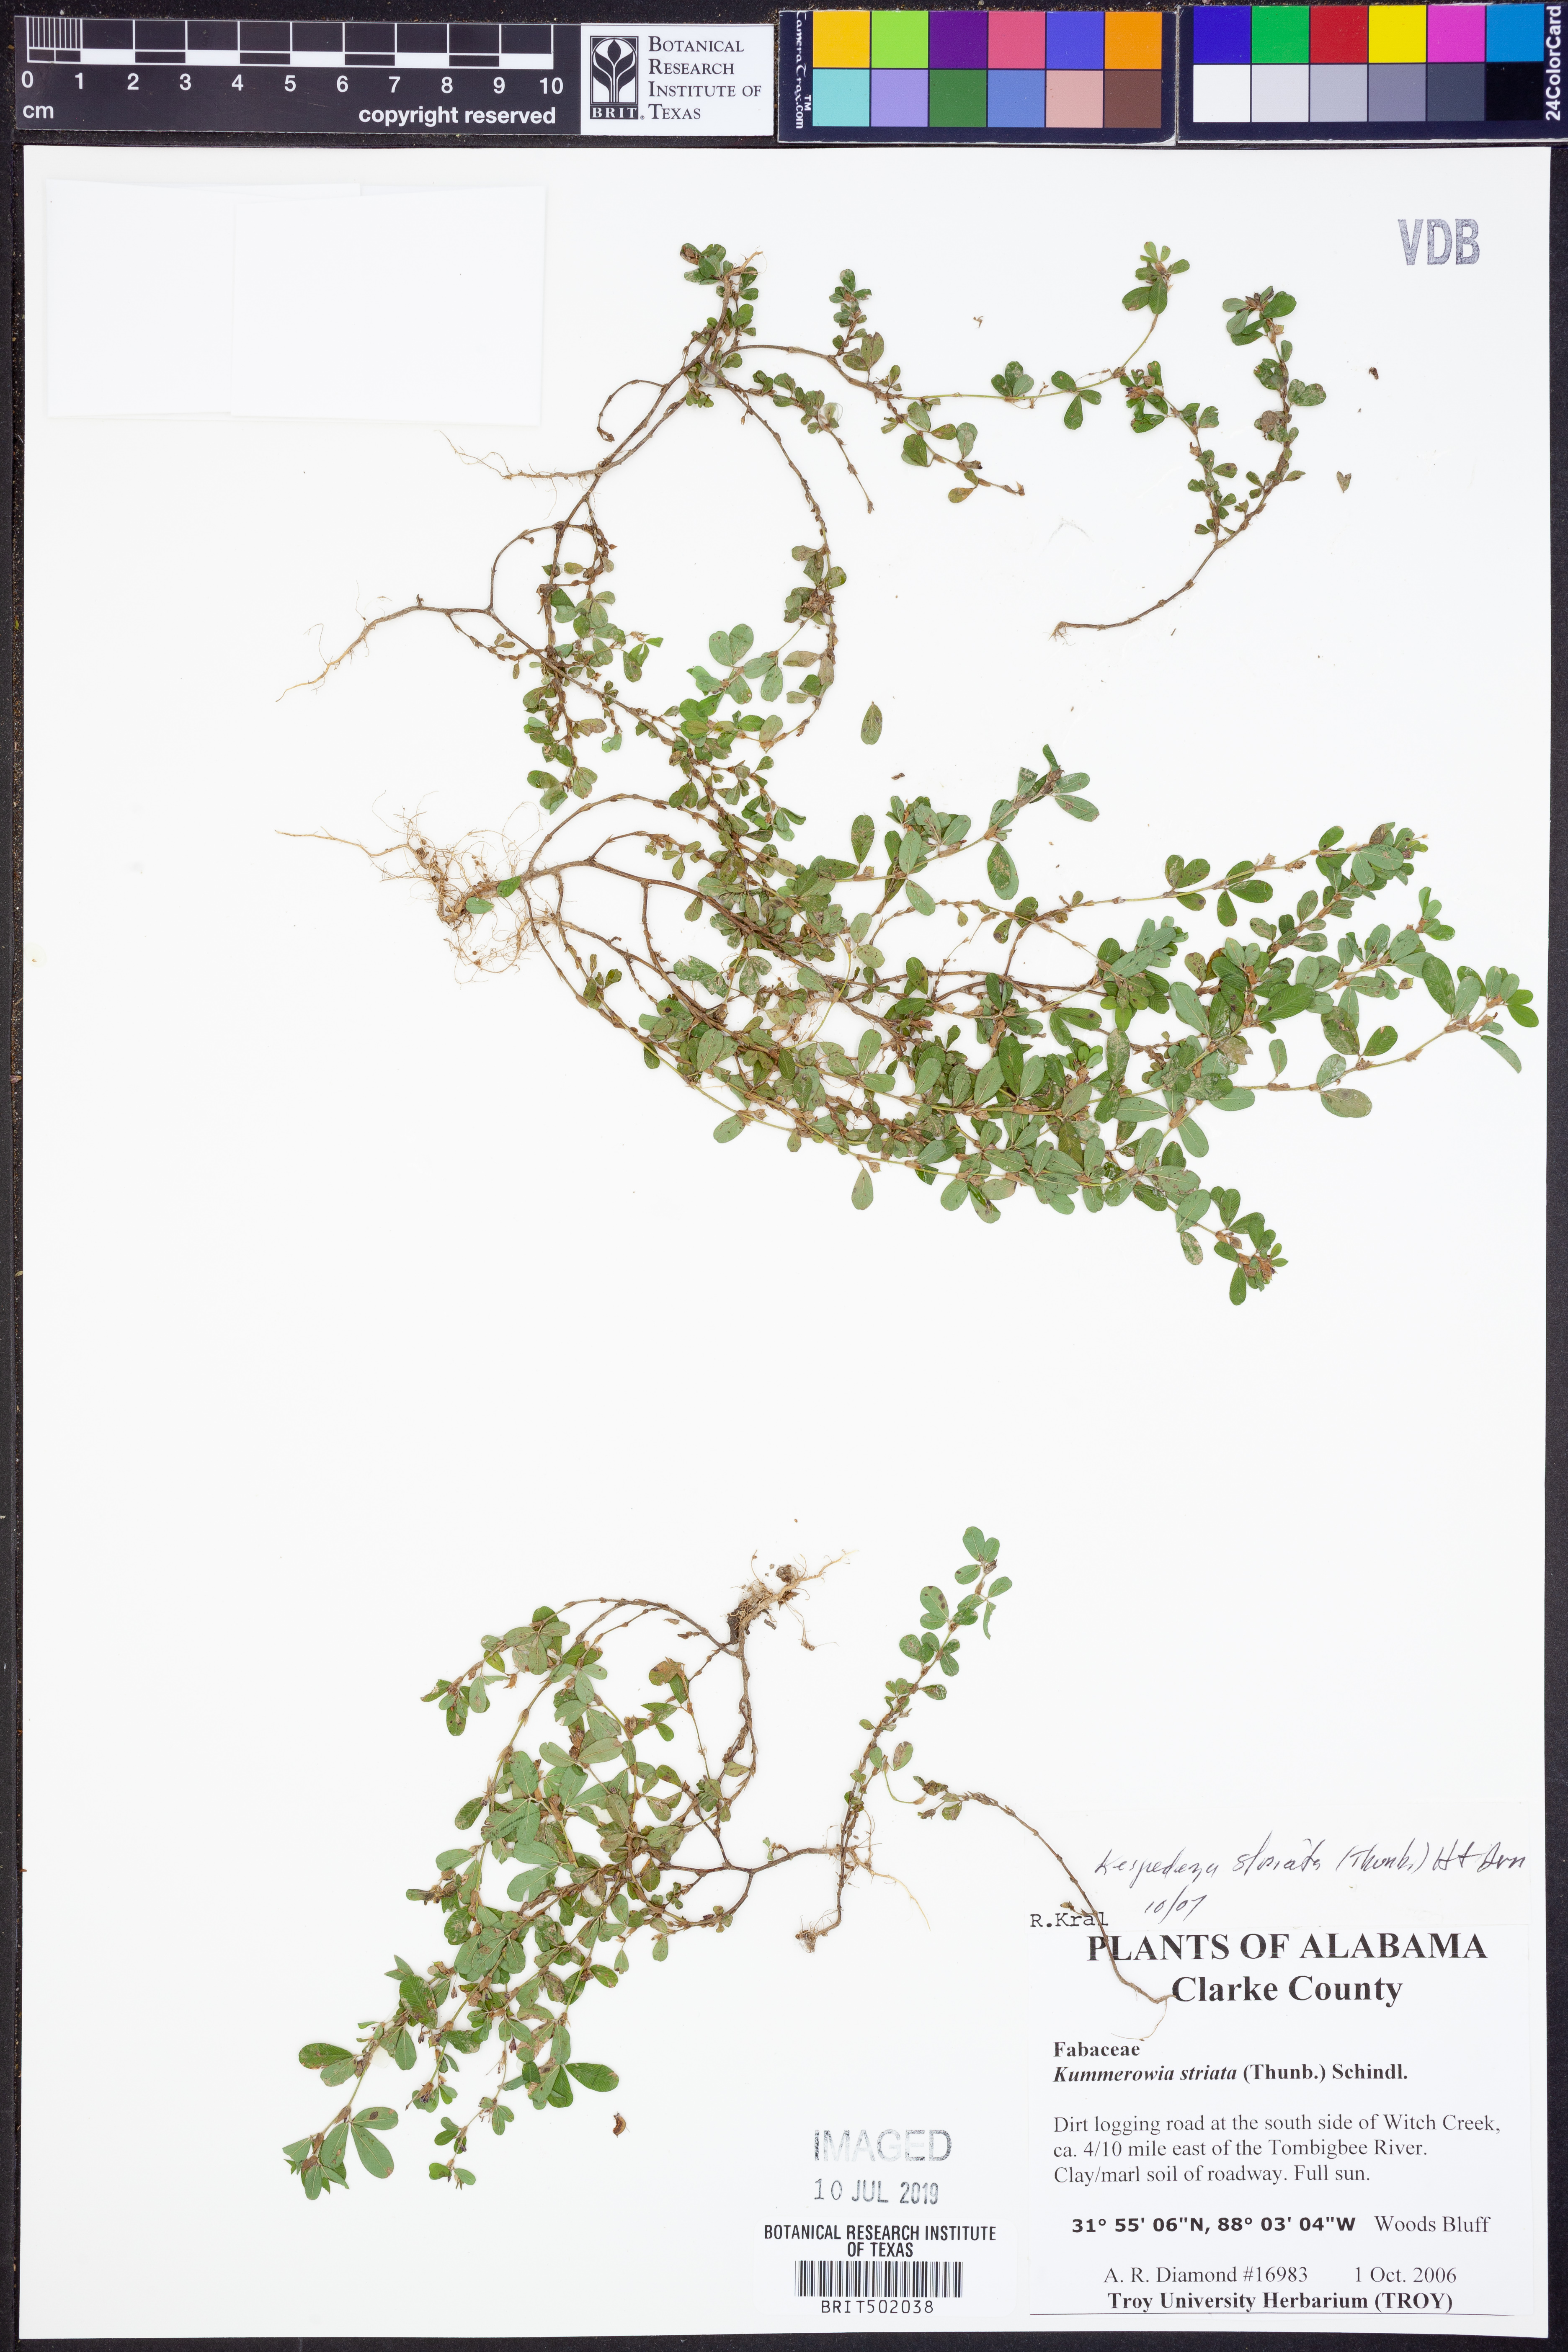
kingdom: Plantae
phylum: Tracheophyta
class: Magnoliopsida
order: Fabales
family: Fabaceae
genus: Kummerowia
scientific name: Kummerowia striata
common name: Japanese clover
